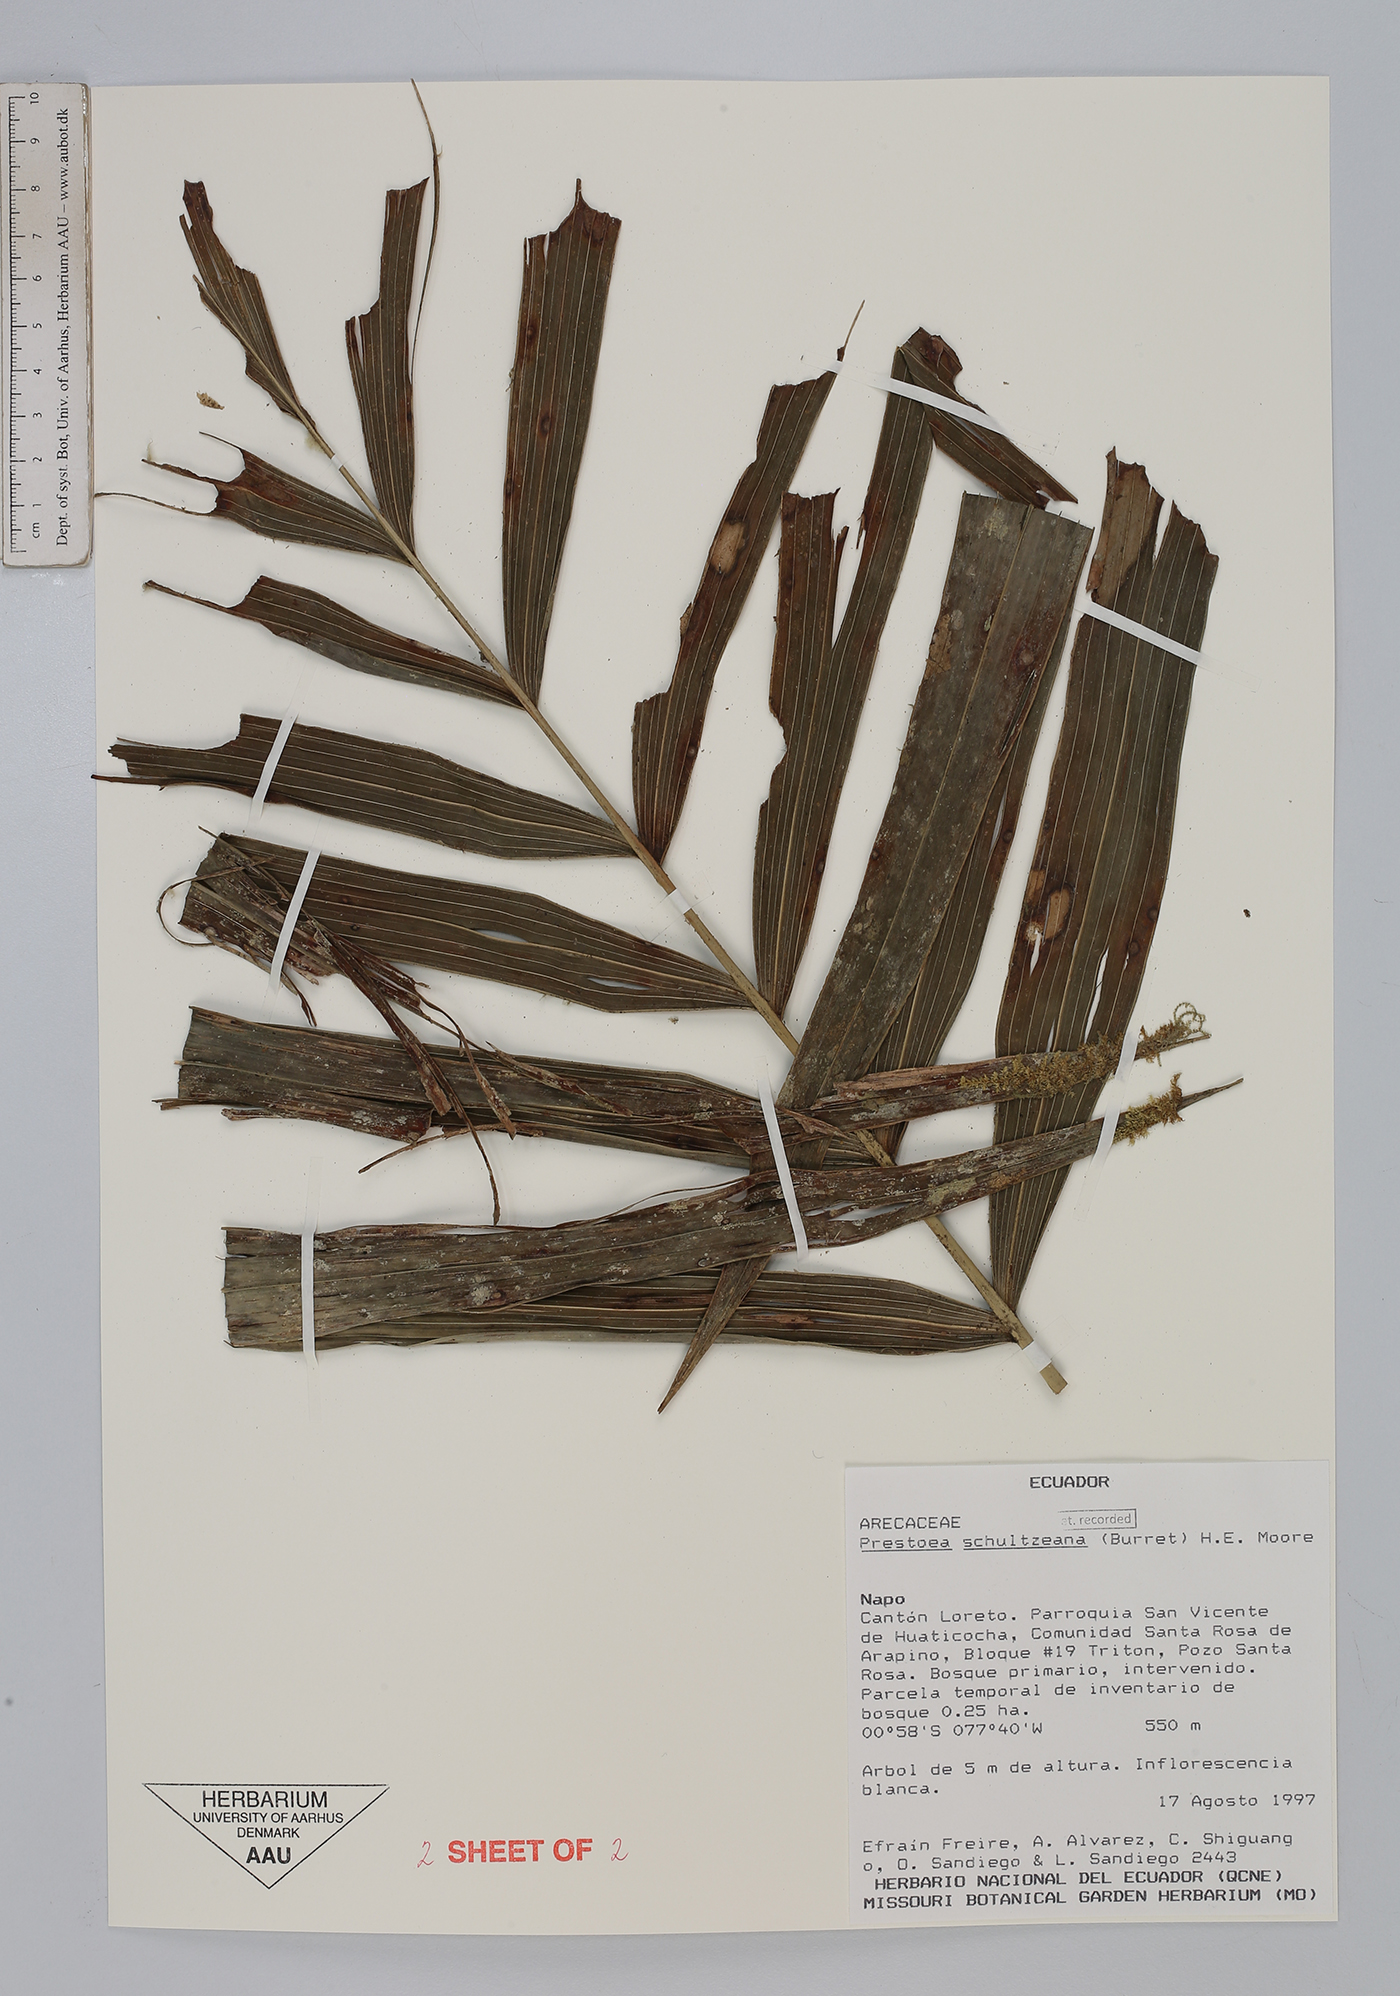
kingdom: Plantae
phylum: Tracheophyta
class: Liliopsida
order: Arecales
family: Arecaceae
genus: Prestoea
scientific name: Prestoea schultzeana
